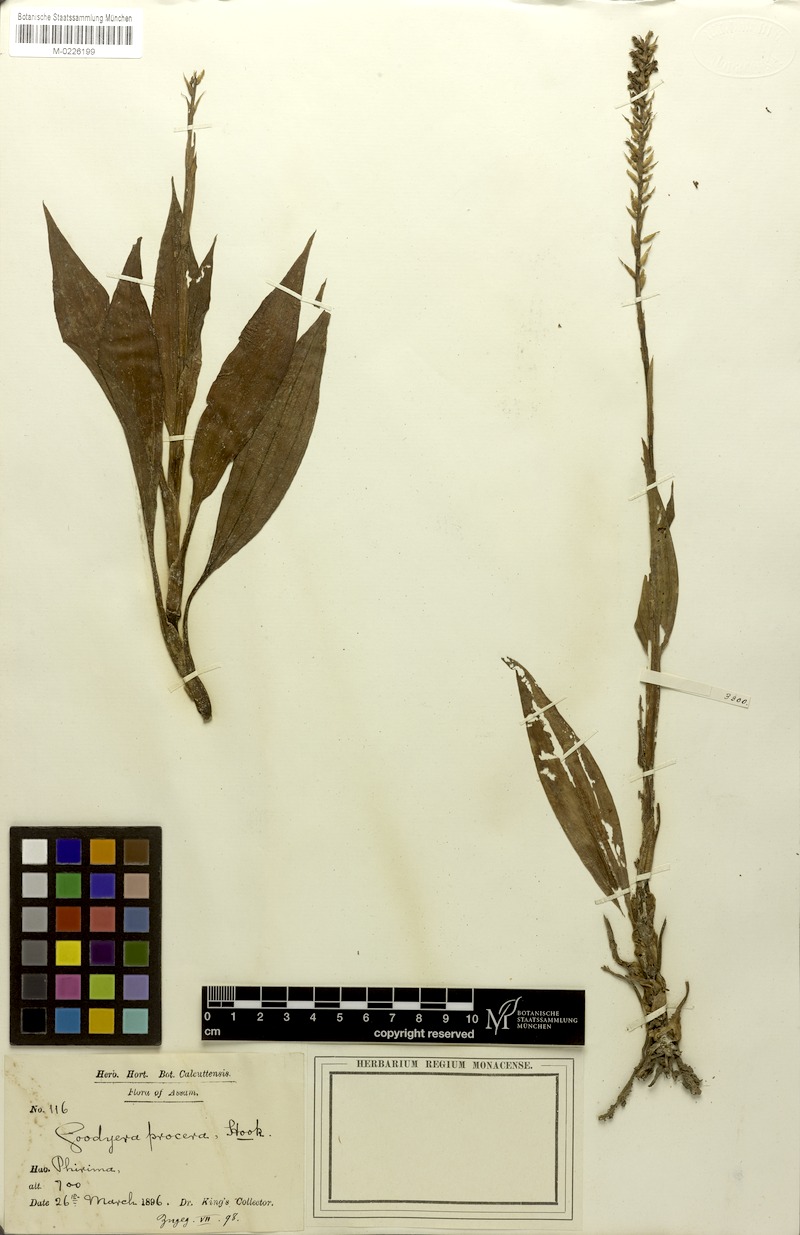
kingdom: Plantae
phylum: Tracheophyta
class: Liliopsida
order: Asparagales
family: Orchidaceae
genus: Goodyera
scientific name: Goodyera procera
